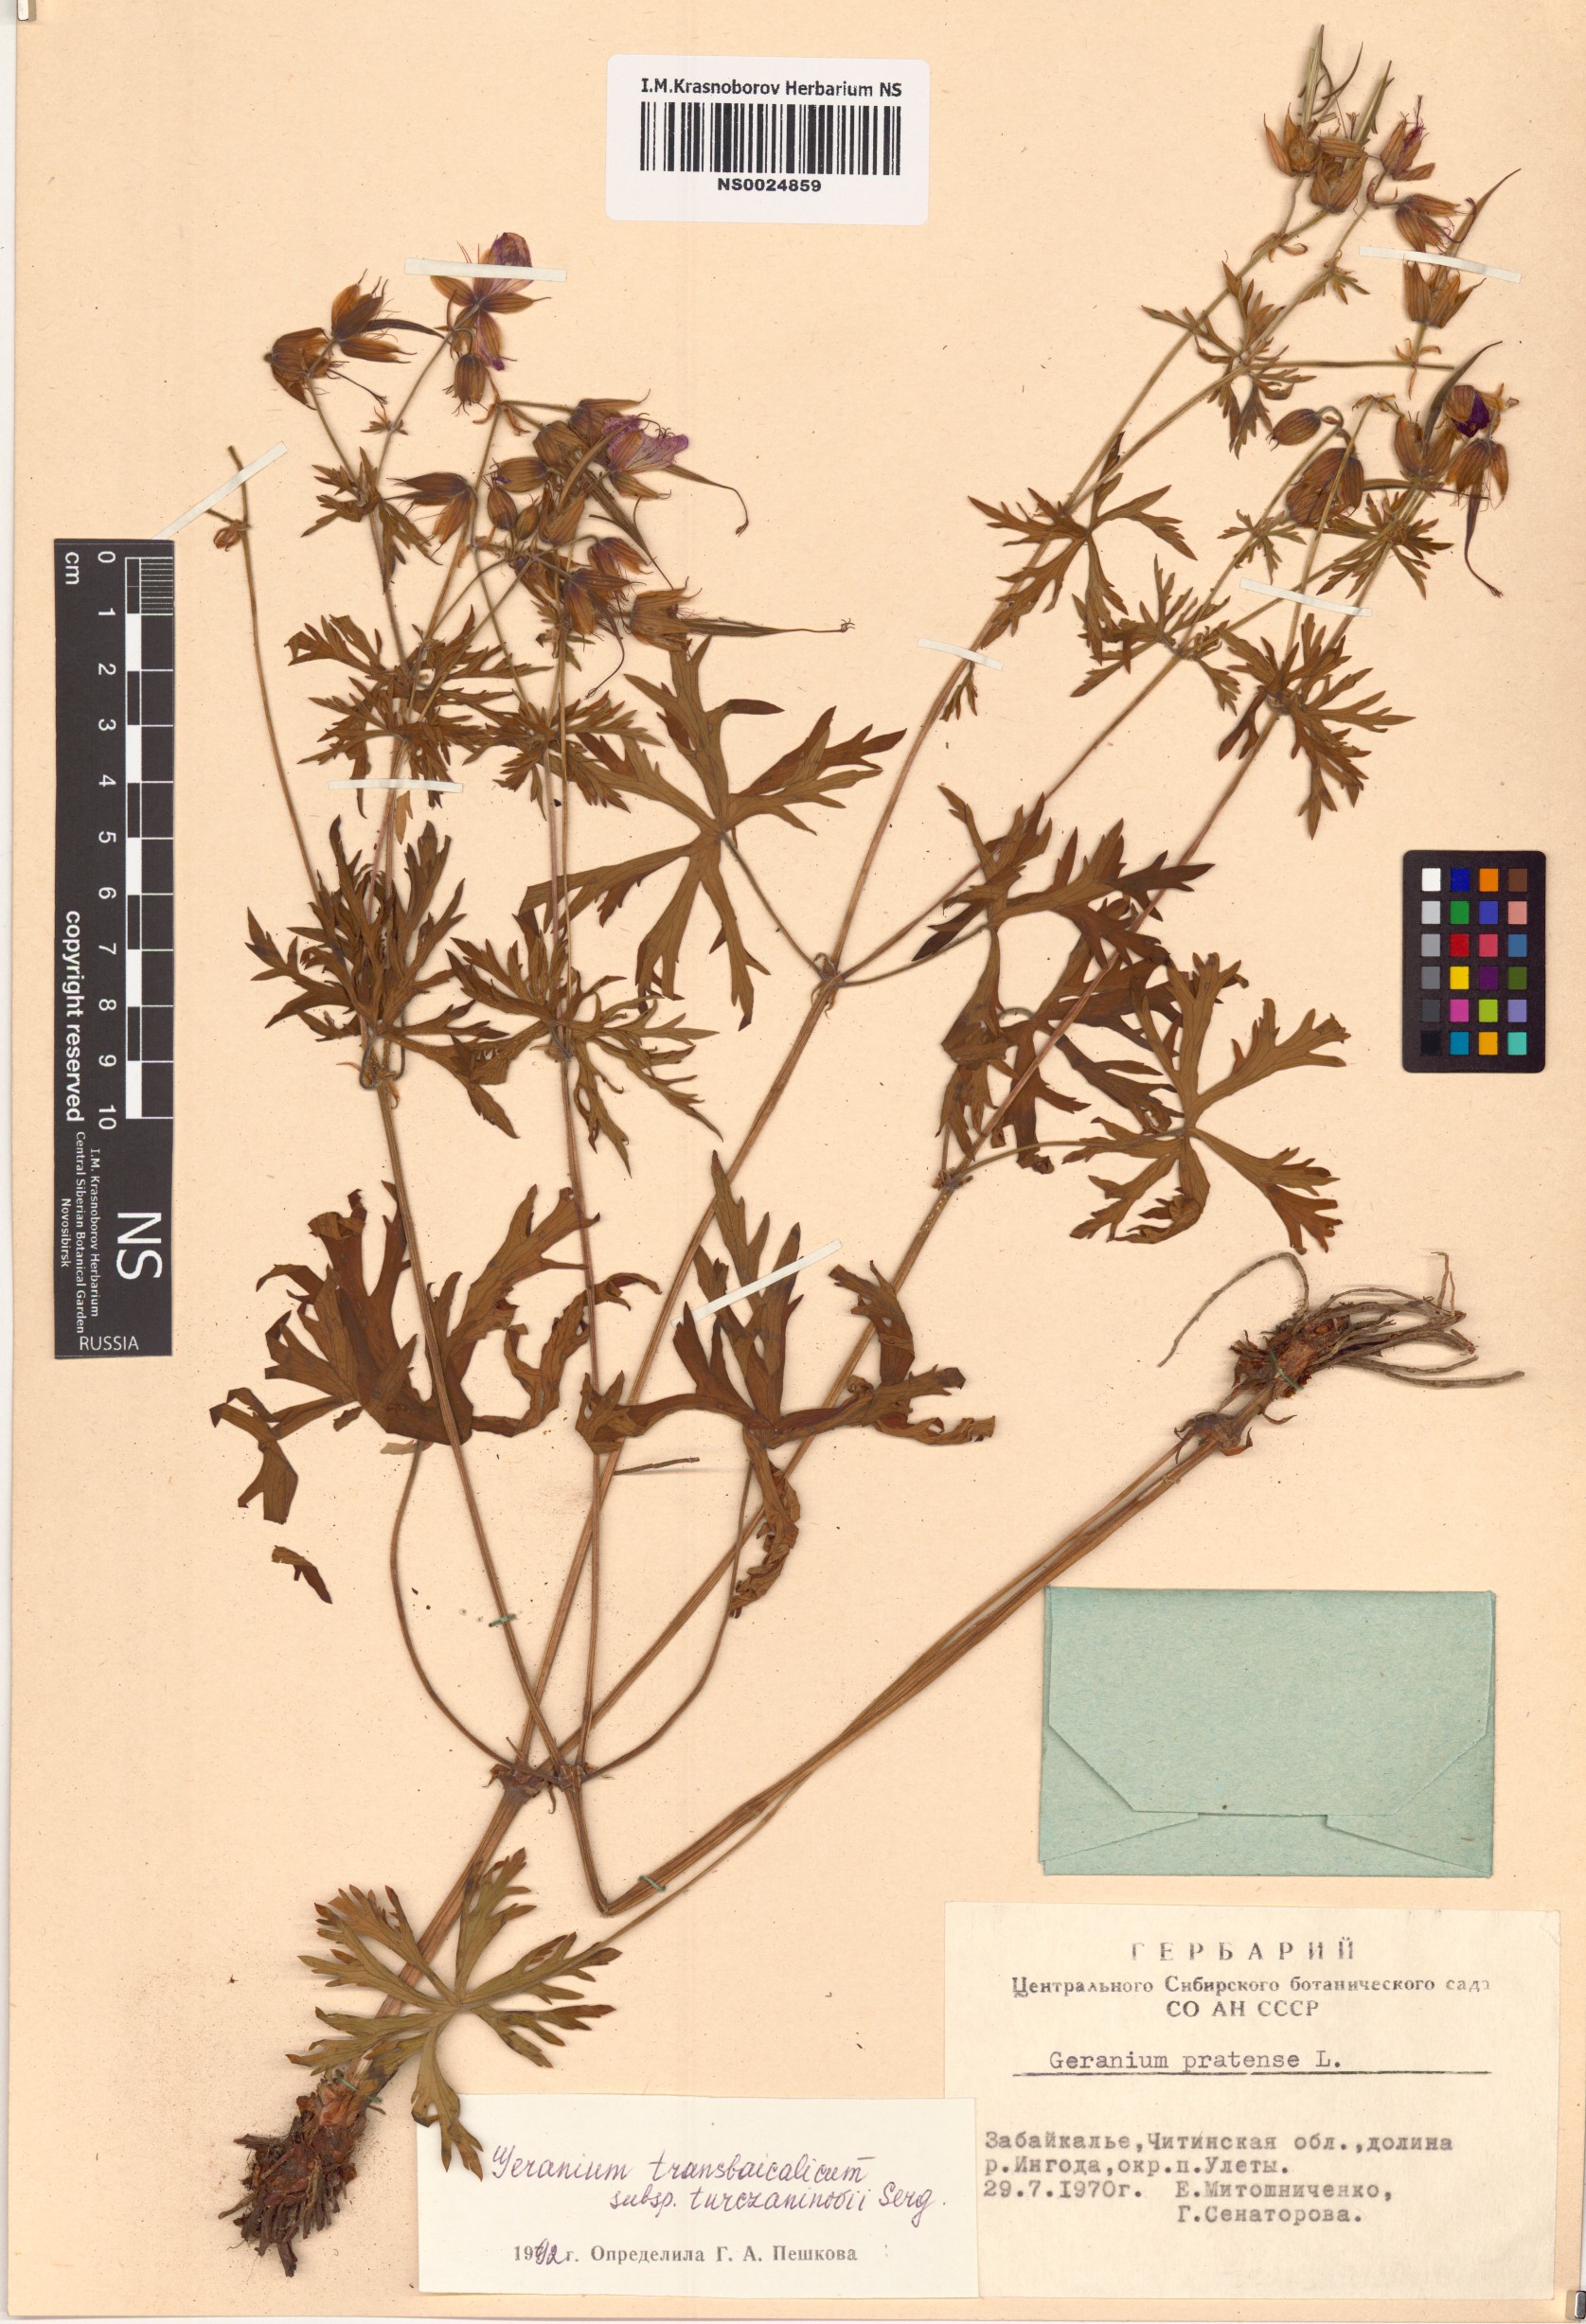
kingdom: Plantae
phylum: Tracheophyta
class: Magnoliopsida
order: Geraniales
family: Geraniaceae
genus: Geranium
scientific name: Geranium pratense
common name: Meadow crane's-bill
